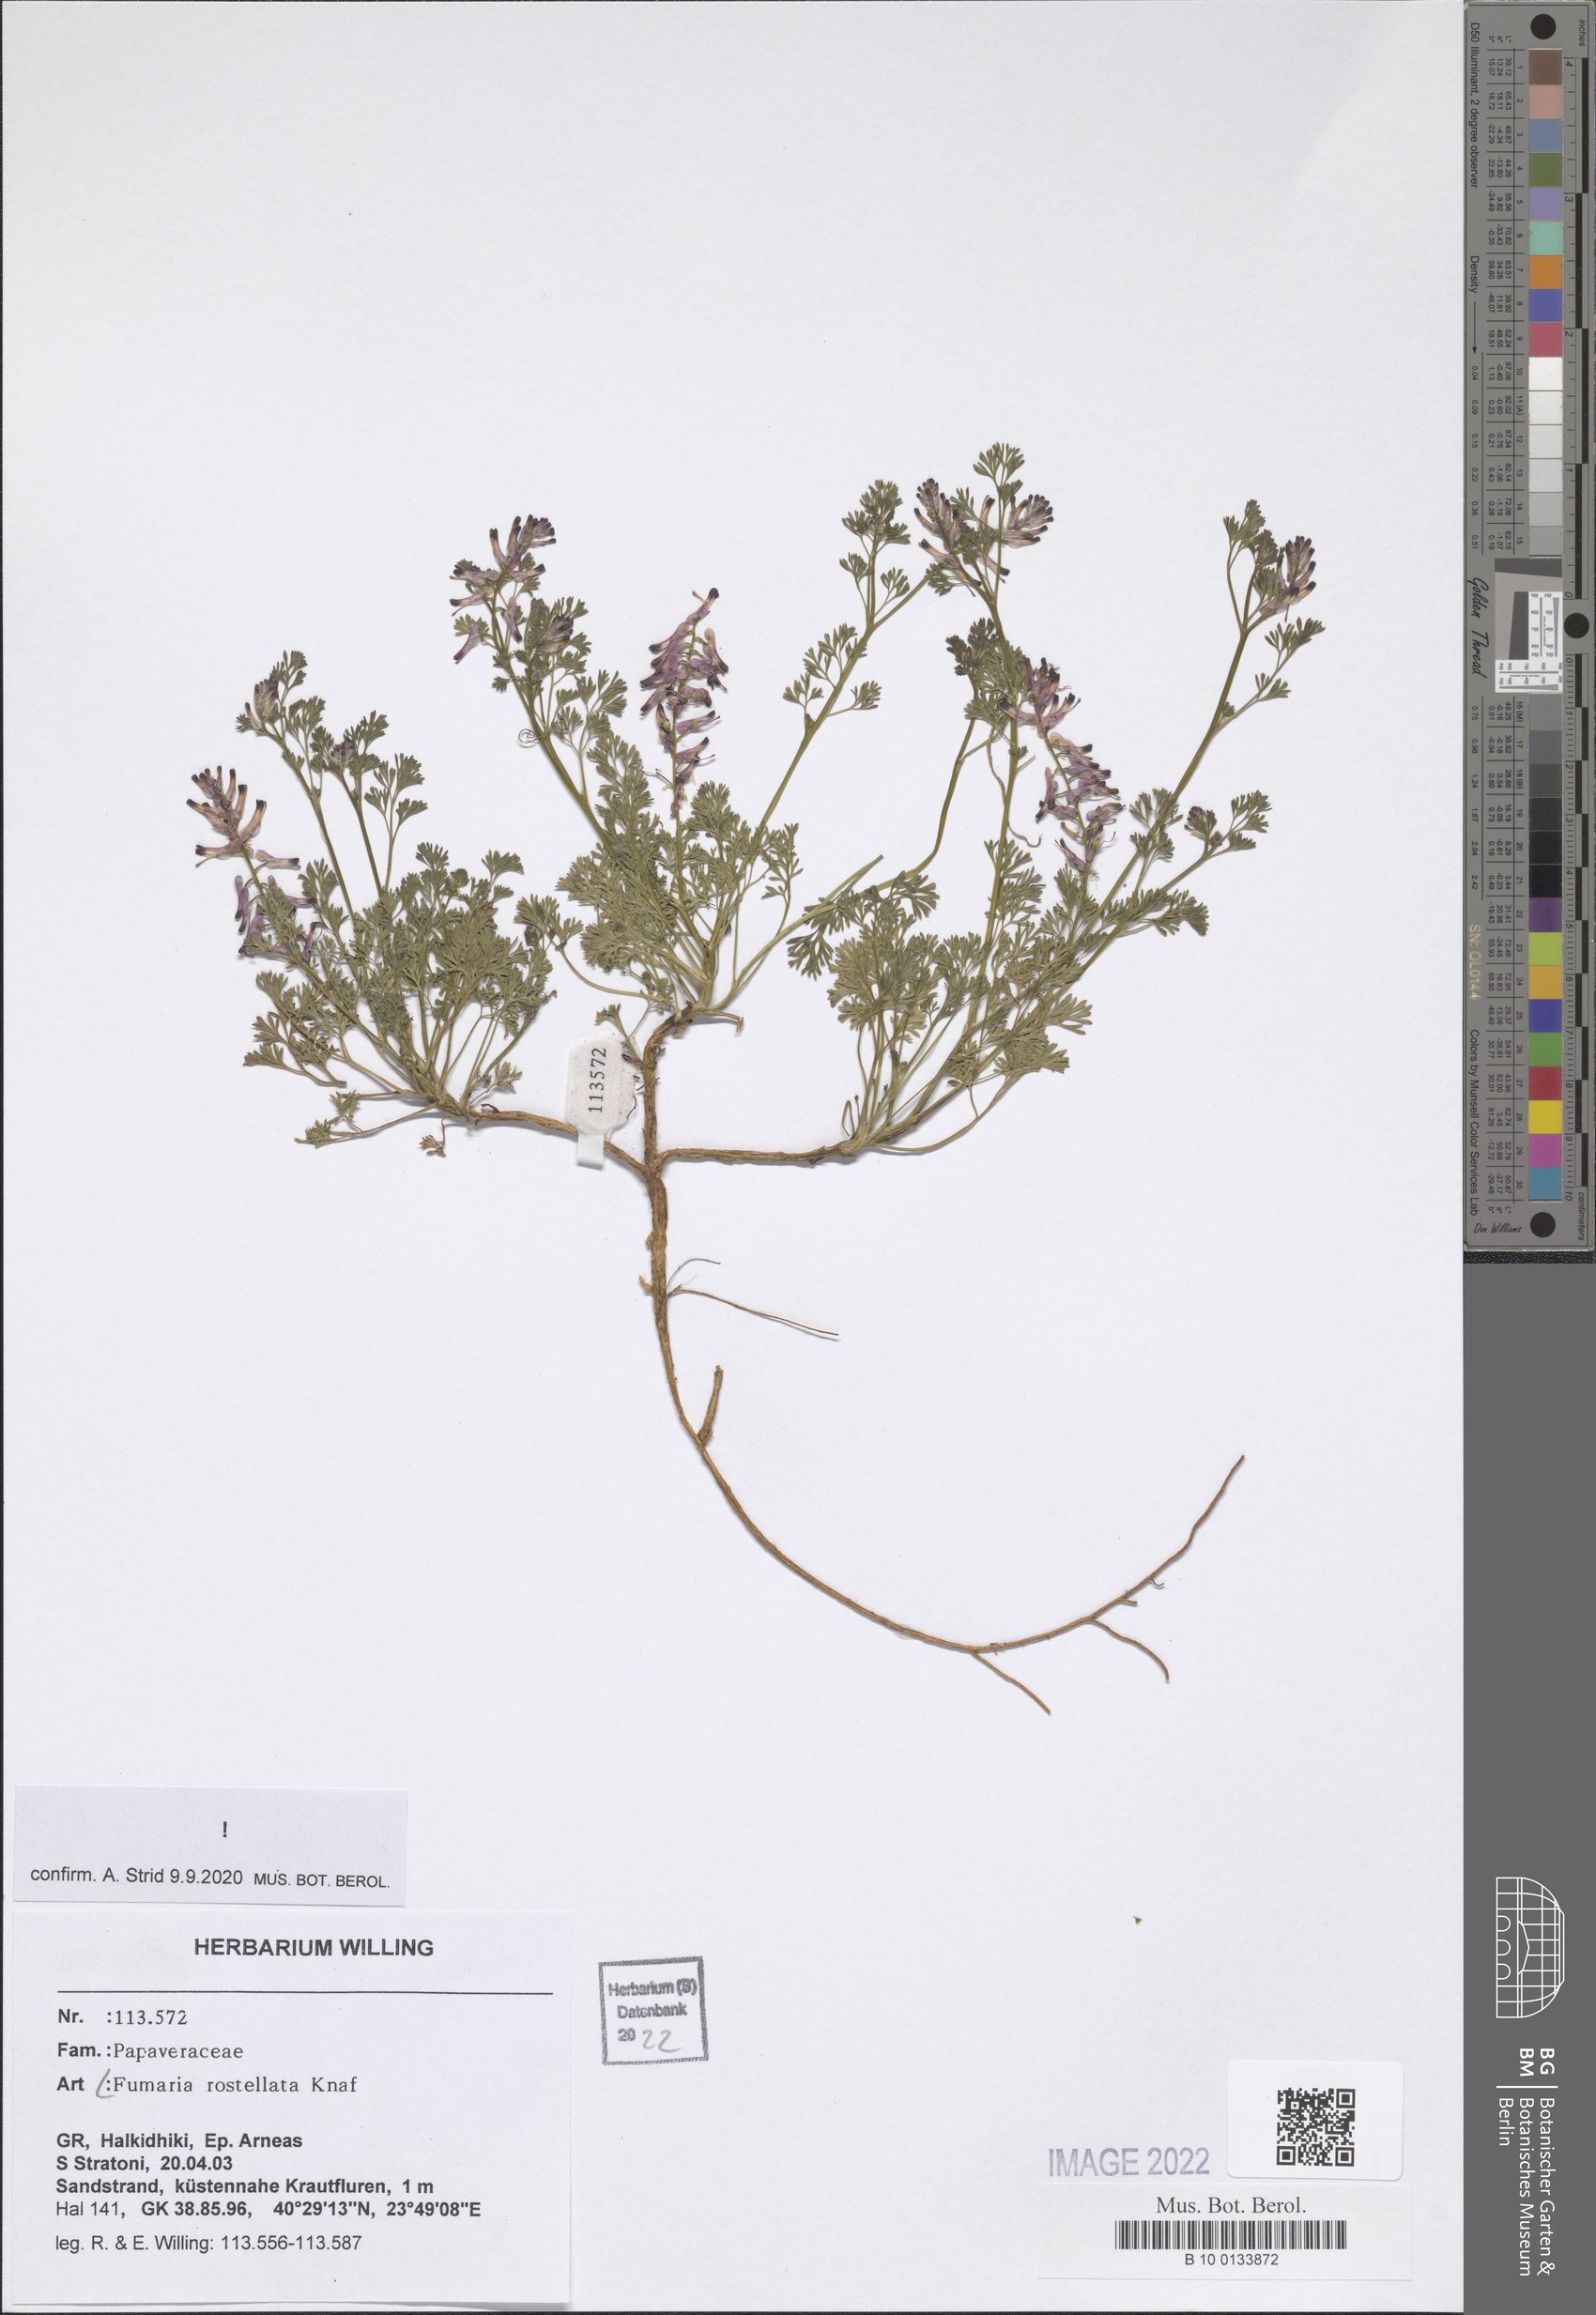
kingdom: Plantae
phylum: Tracheophyta
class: Magnoliopsida
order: Ranunculales
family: Papaveraceae
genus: Fumaria
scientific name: Fumaria rostellata
